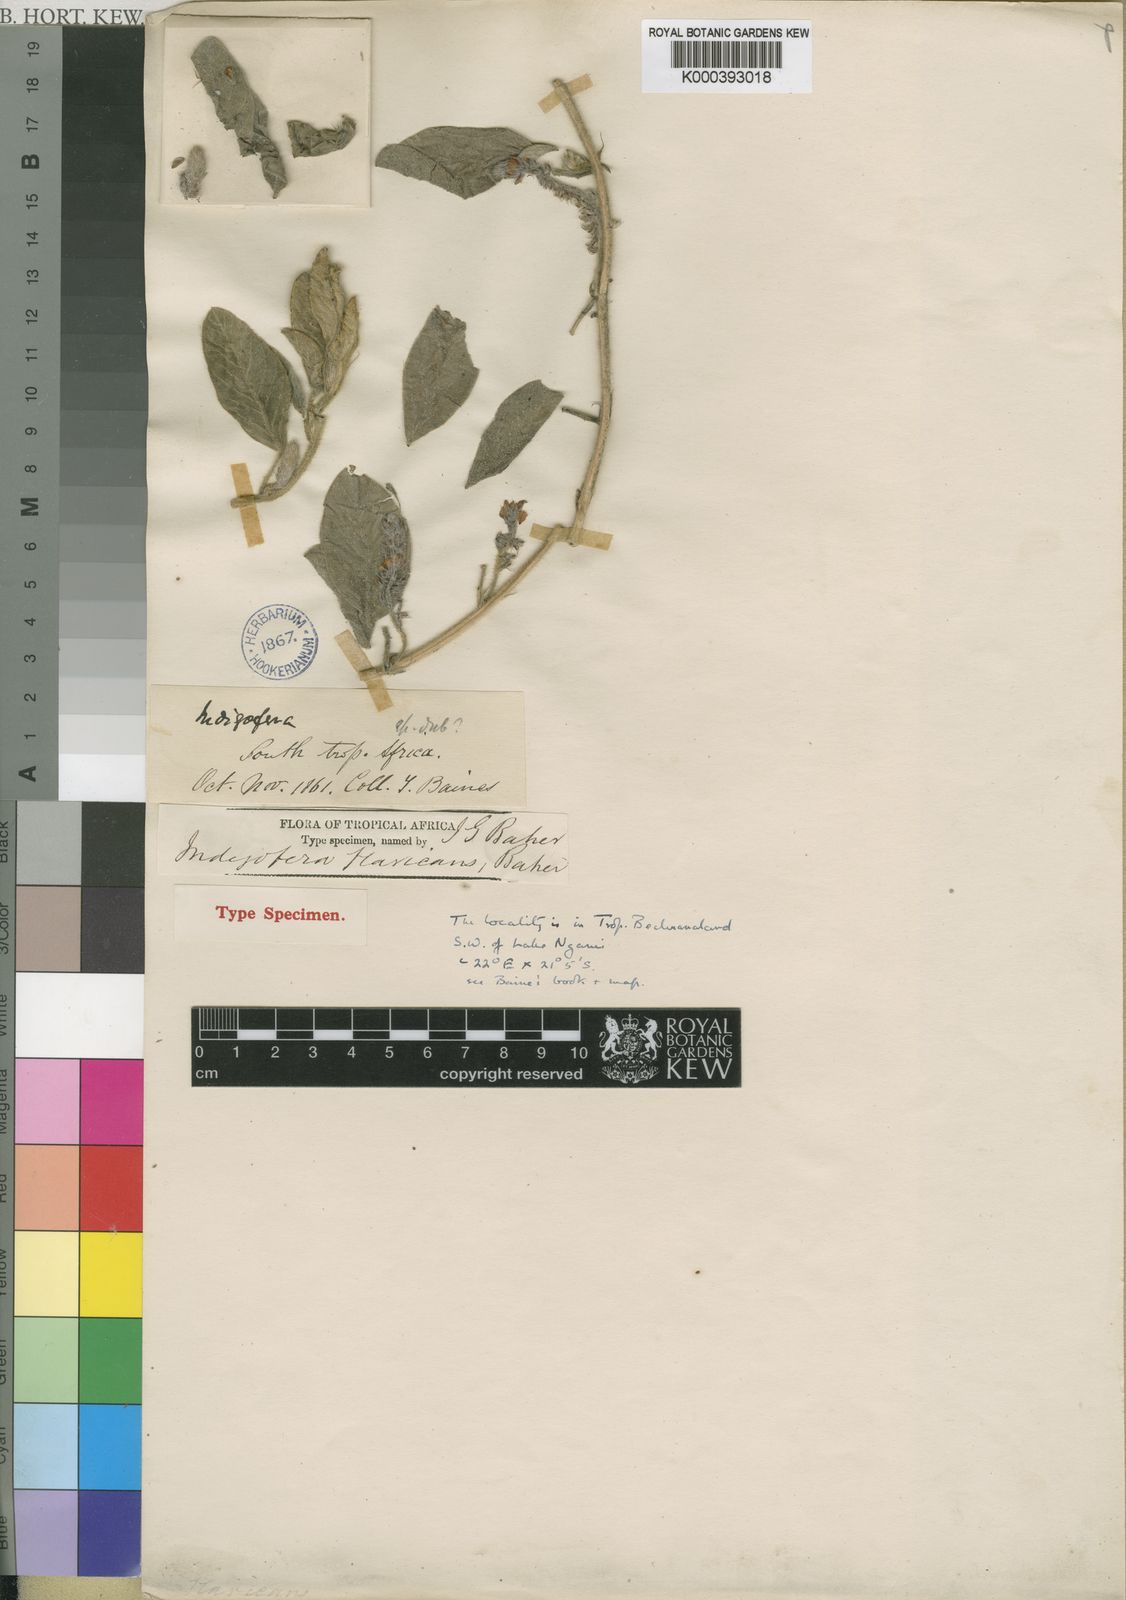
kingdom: Plantae
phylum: Tracheophyta
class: Magnoliopsida
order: Fabales
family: Fabaceae
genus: Indigofera
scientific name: Indigofera flavicans
